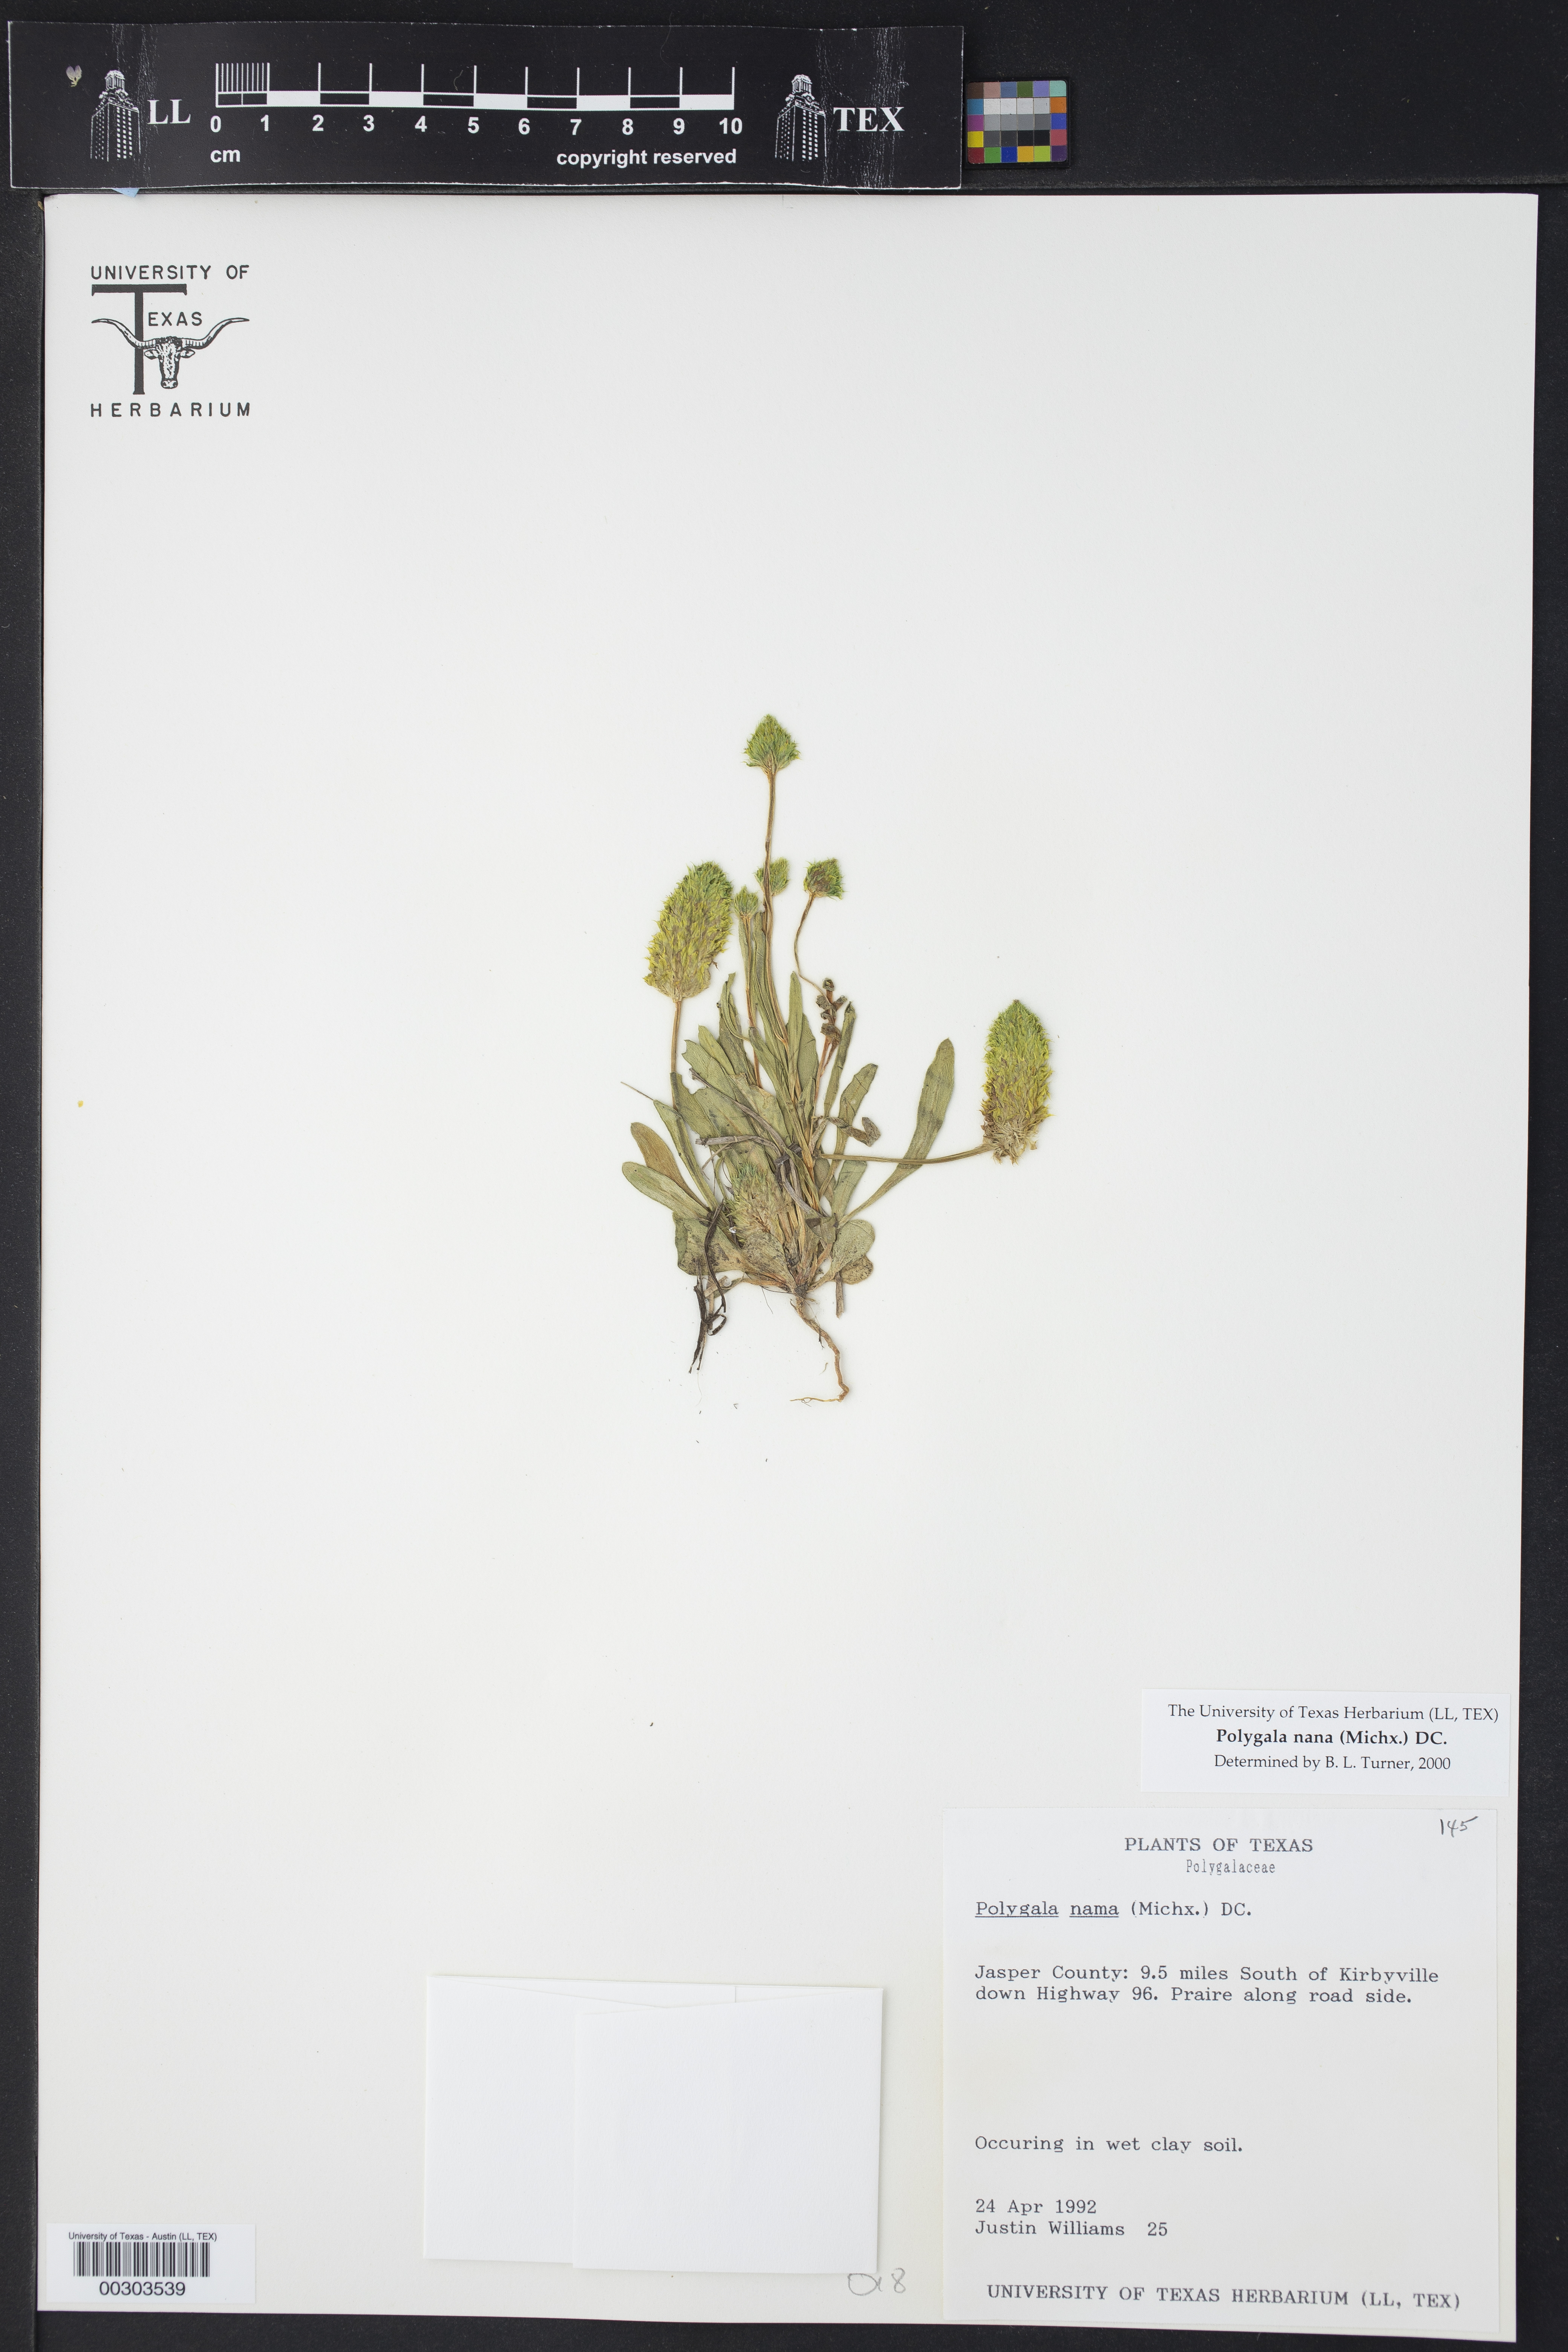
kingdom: Plantae
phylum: Tracheophyta
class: Magnoliopsida
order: Fabales
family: Polygalaceae
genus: Polygala
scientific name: Polygala nana
